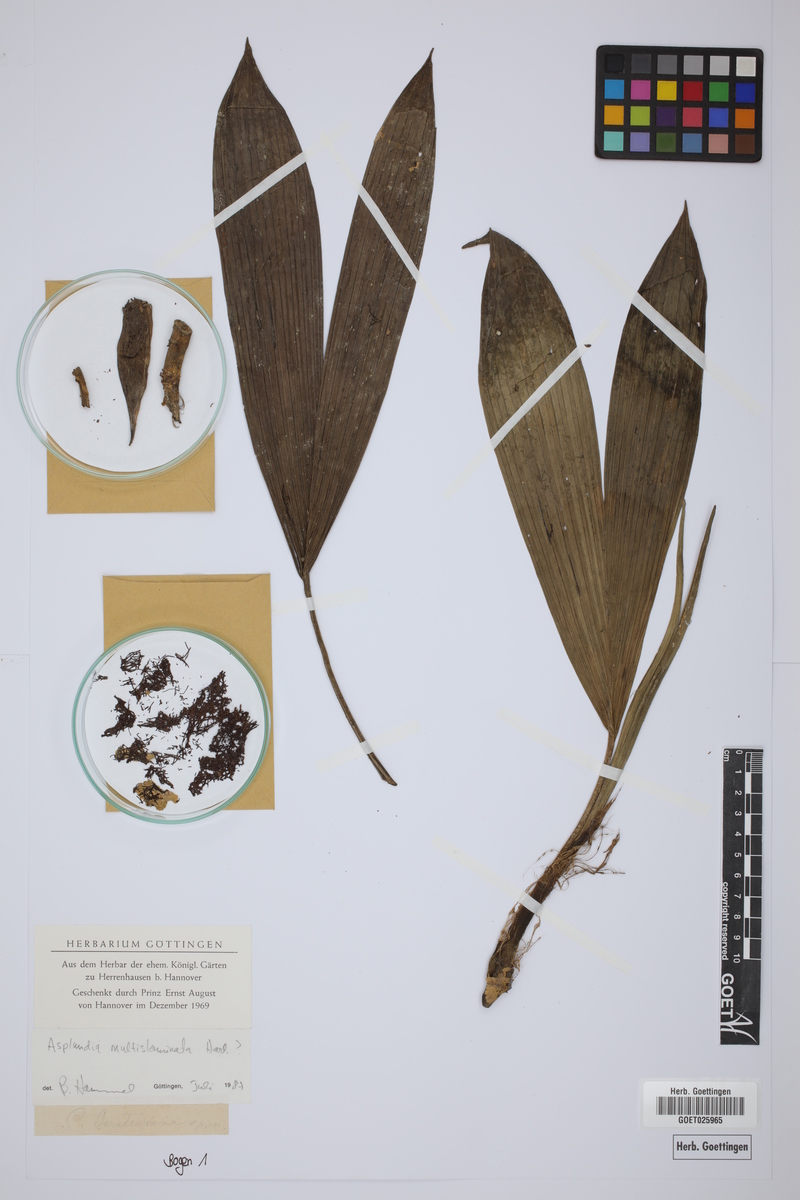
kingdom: Plantae
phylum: Tracheophyta
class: Liliopsida
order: Pandanales
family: Cyclanthaceae
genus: Asplundia
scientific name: Asplundia multistaminata
